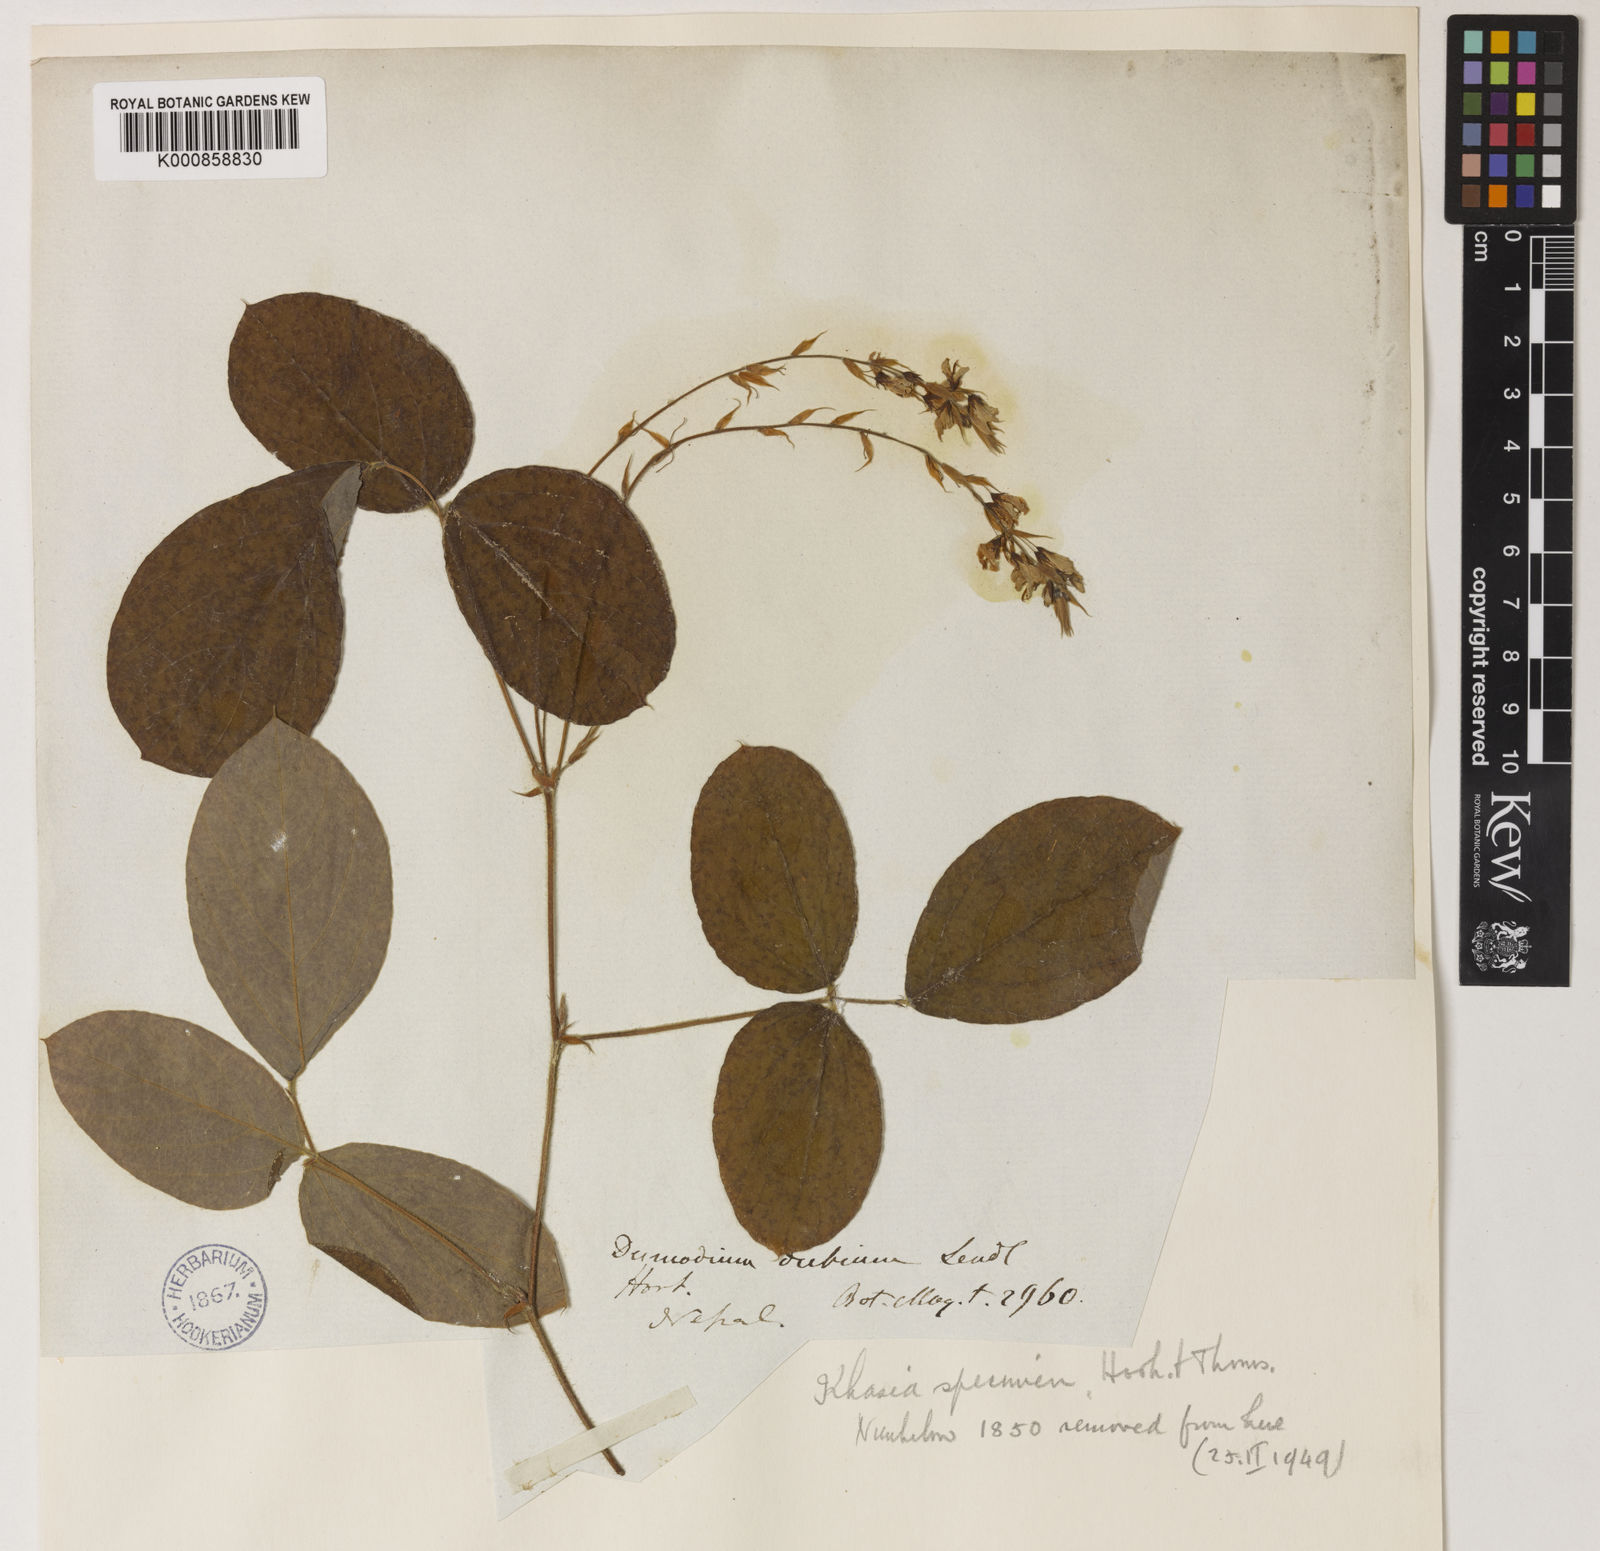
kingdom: Plantae
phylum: Tracheophyta
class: Magnoliopsida
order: Fabales
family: Fabaceae
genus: Ototropis
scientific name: Ototropis multiflora
